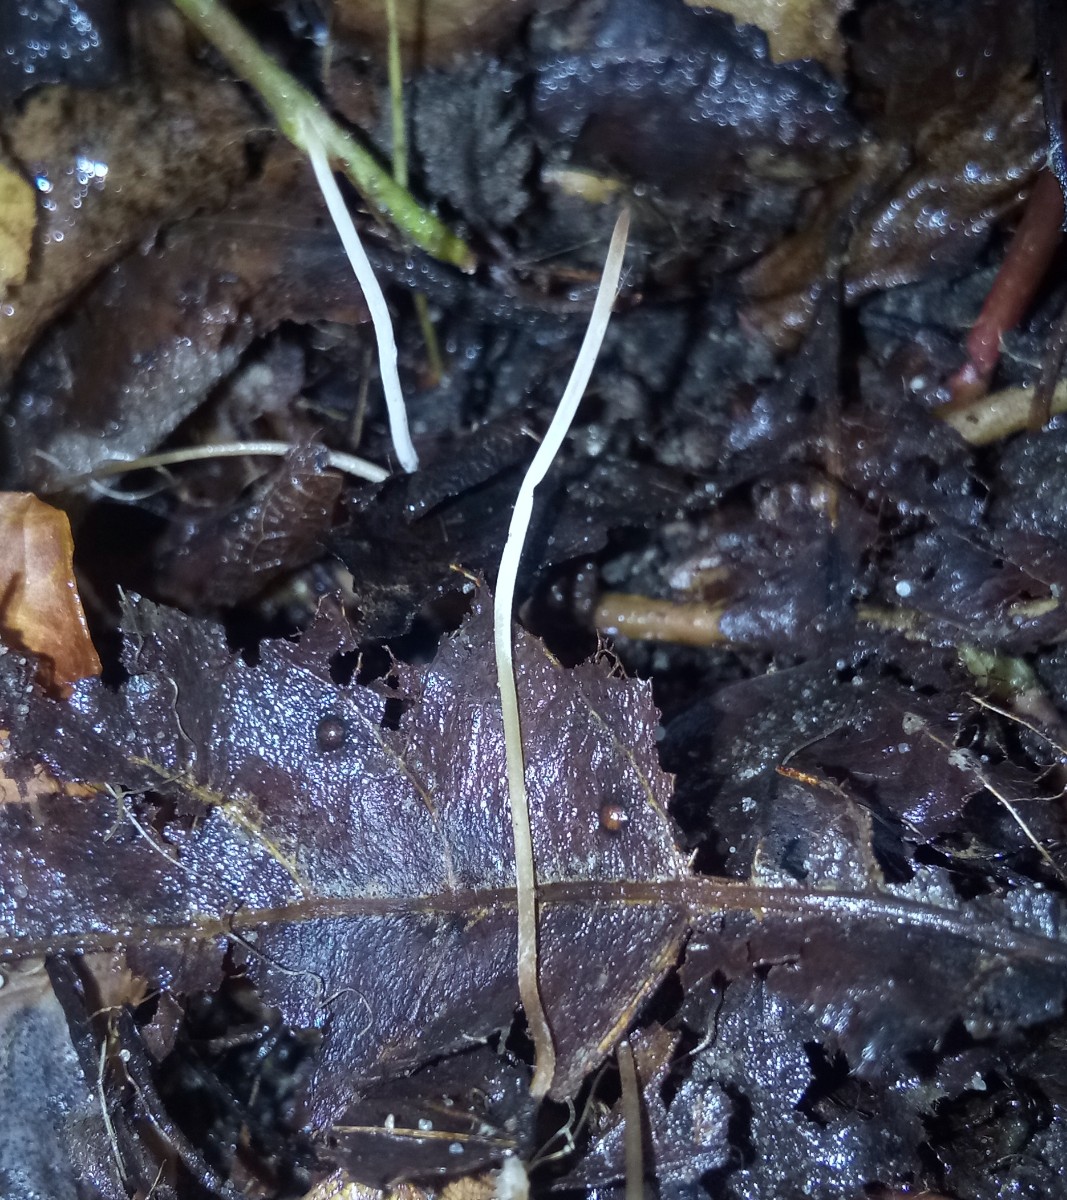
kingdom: Fungi
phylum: Basidiomycota
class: Agaricomycetes
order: Agaricales
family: Typhulaceae
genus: Typhula
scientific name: Typhula juncea
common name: trådagtig rørkølle
